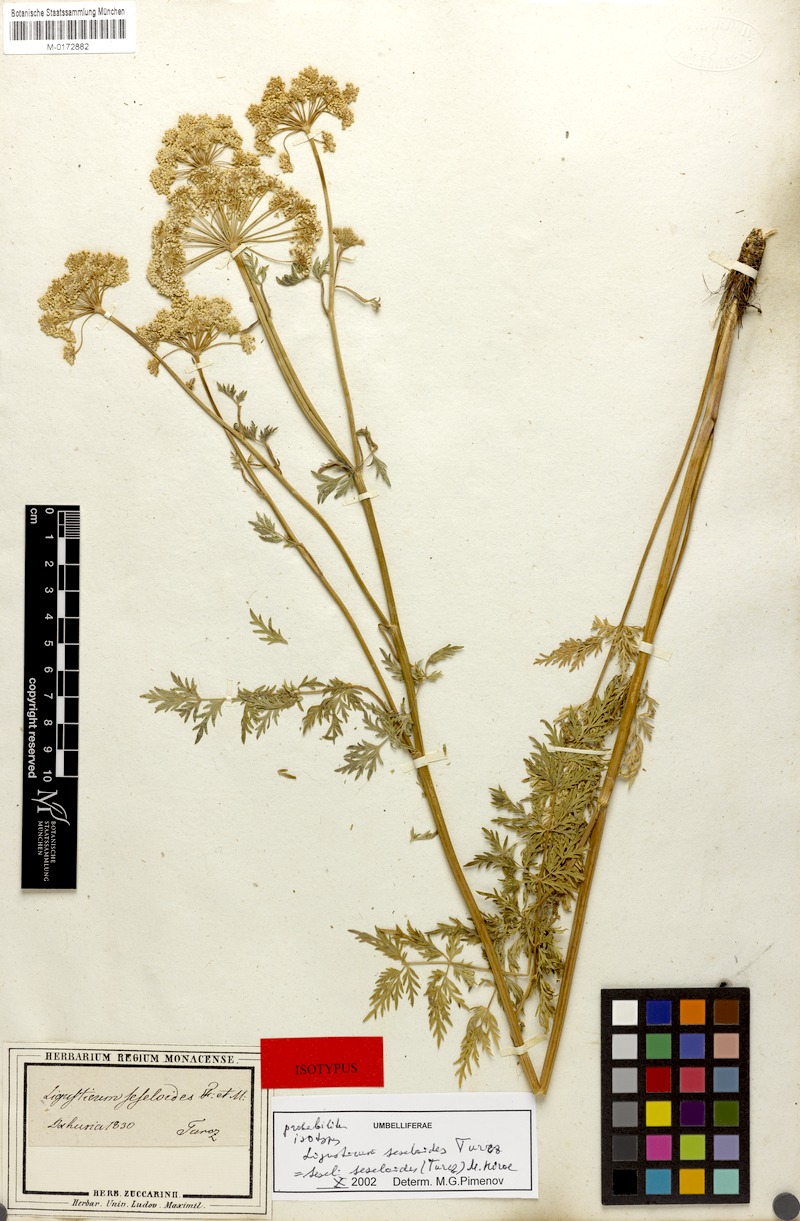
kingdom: Plantae
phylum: Tracheophyta
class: Magnoliopsida
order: Apiales
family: Apiaceae
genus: Seseli
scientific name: Seseli seseloides
